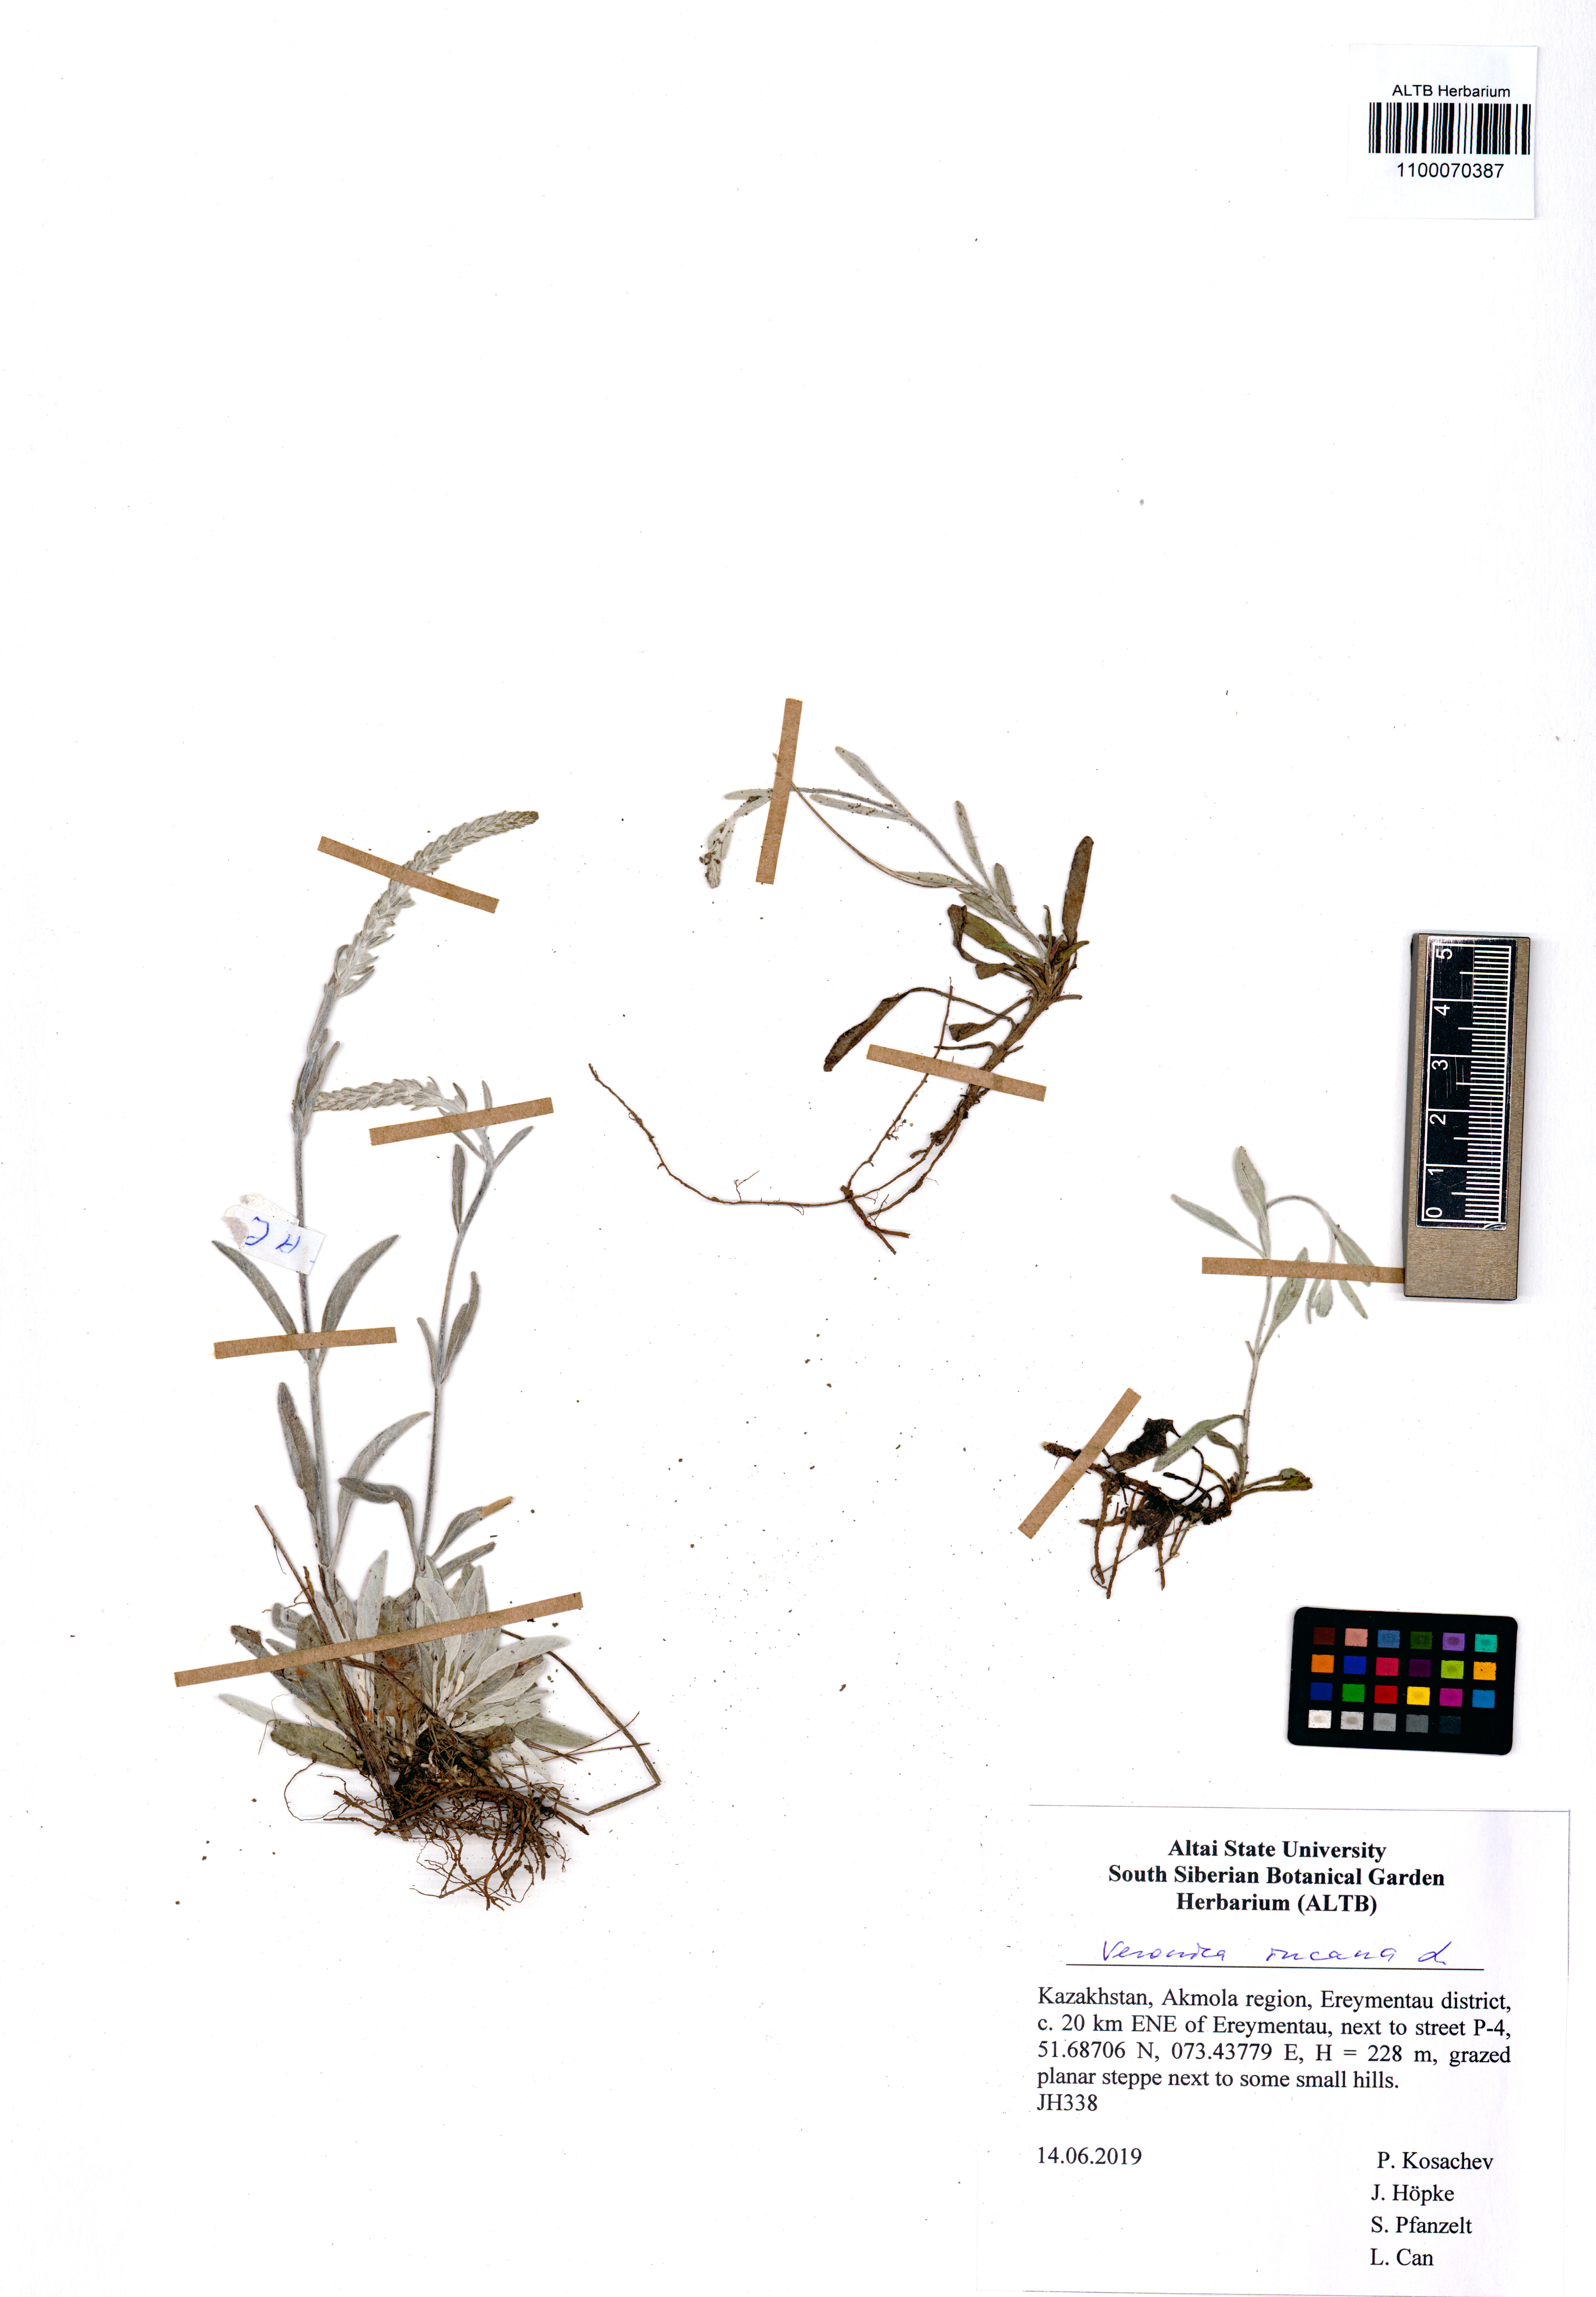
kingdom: Plantae
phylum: Tracheophyta
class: Magnoliopsida
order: Lamiales
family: Plantaginaceae
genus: Veronica
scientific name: Veronica incana
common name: Silver speedwell
